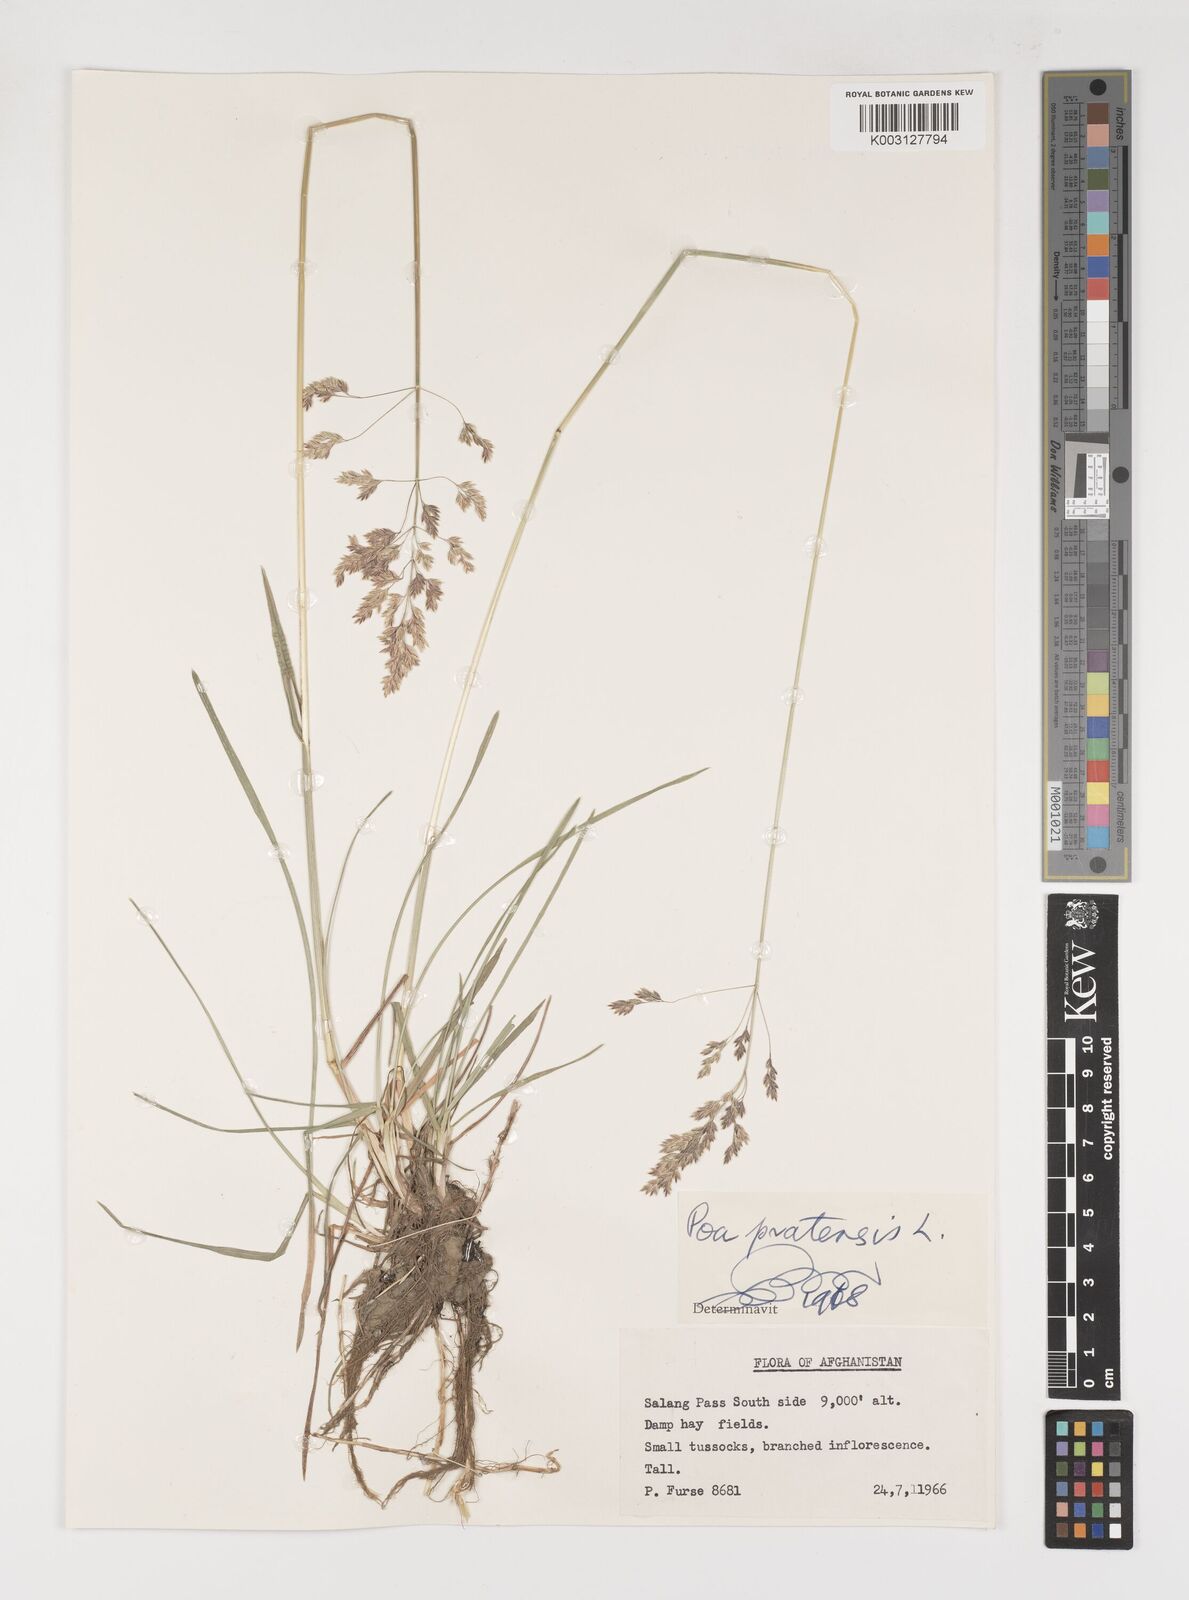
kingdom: Plantae
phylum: Tracheophyta
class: Liliopsida
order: Poales
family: Poaceae
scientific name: Poaceae
